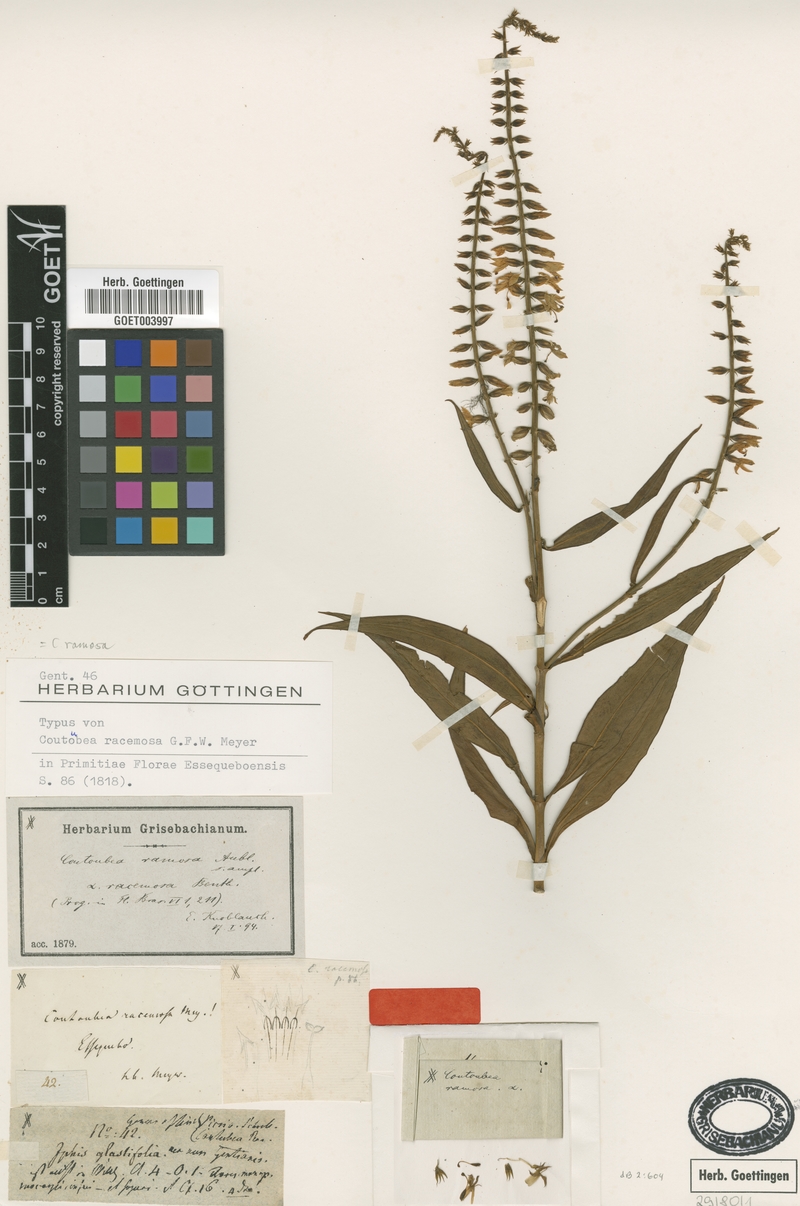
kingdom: Plantae
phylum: Tracheophyta
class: Magnoliopsida
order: Gentianales
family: Gentianaceae
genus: Coutoubea
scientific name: Coutoubea ramosa
